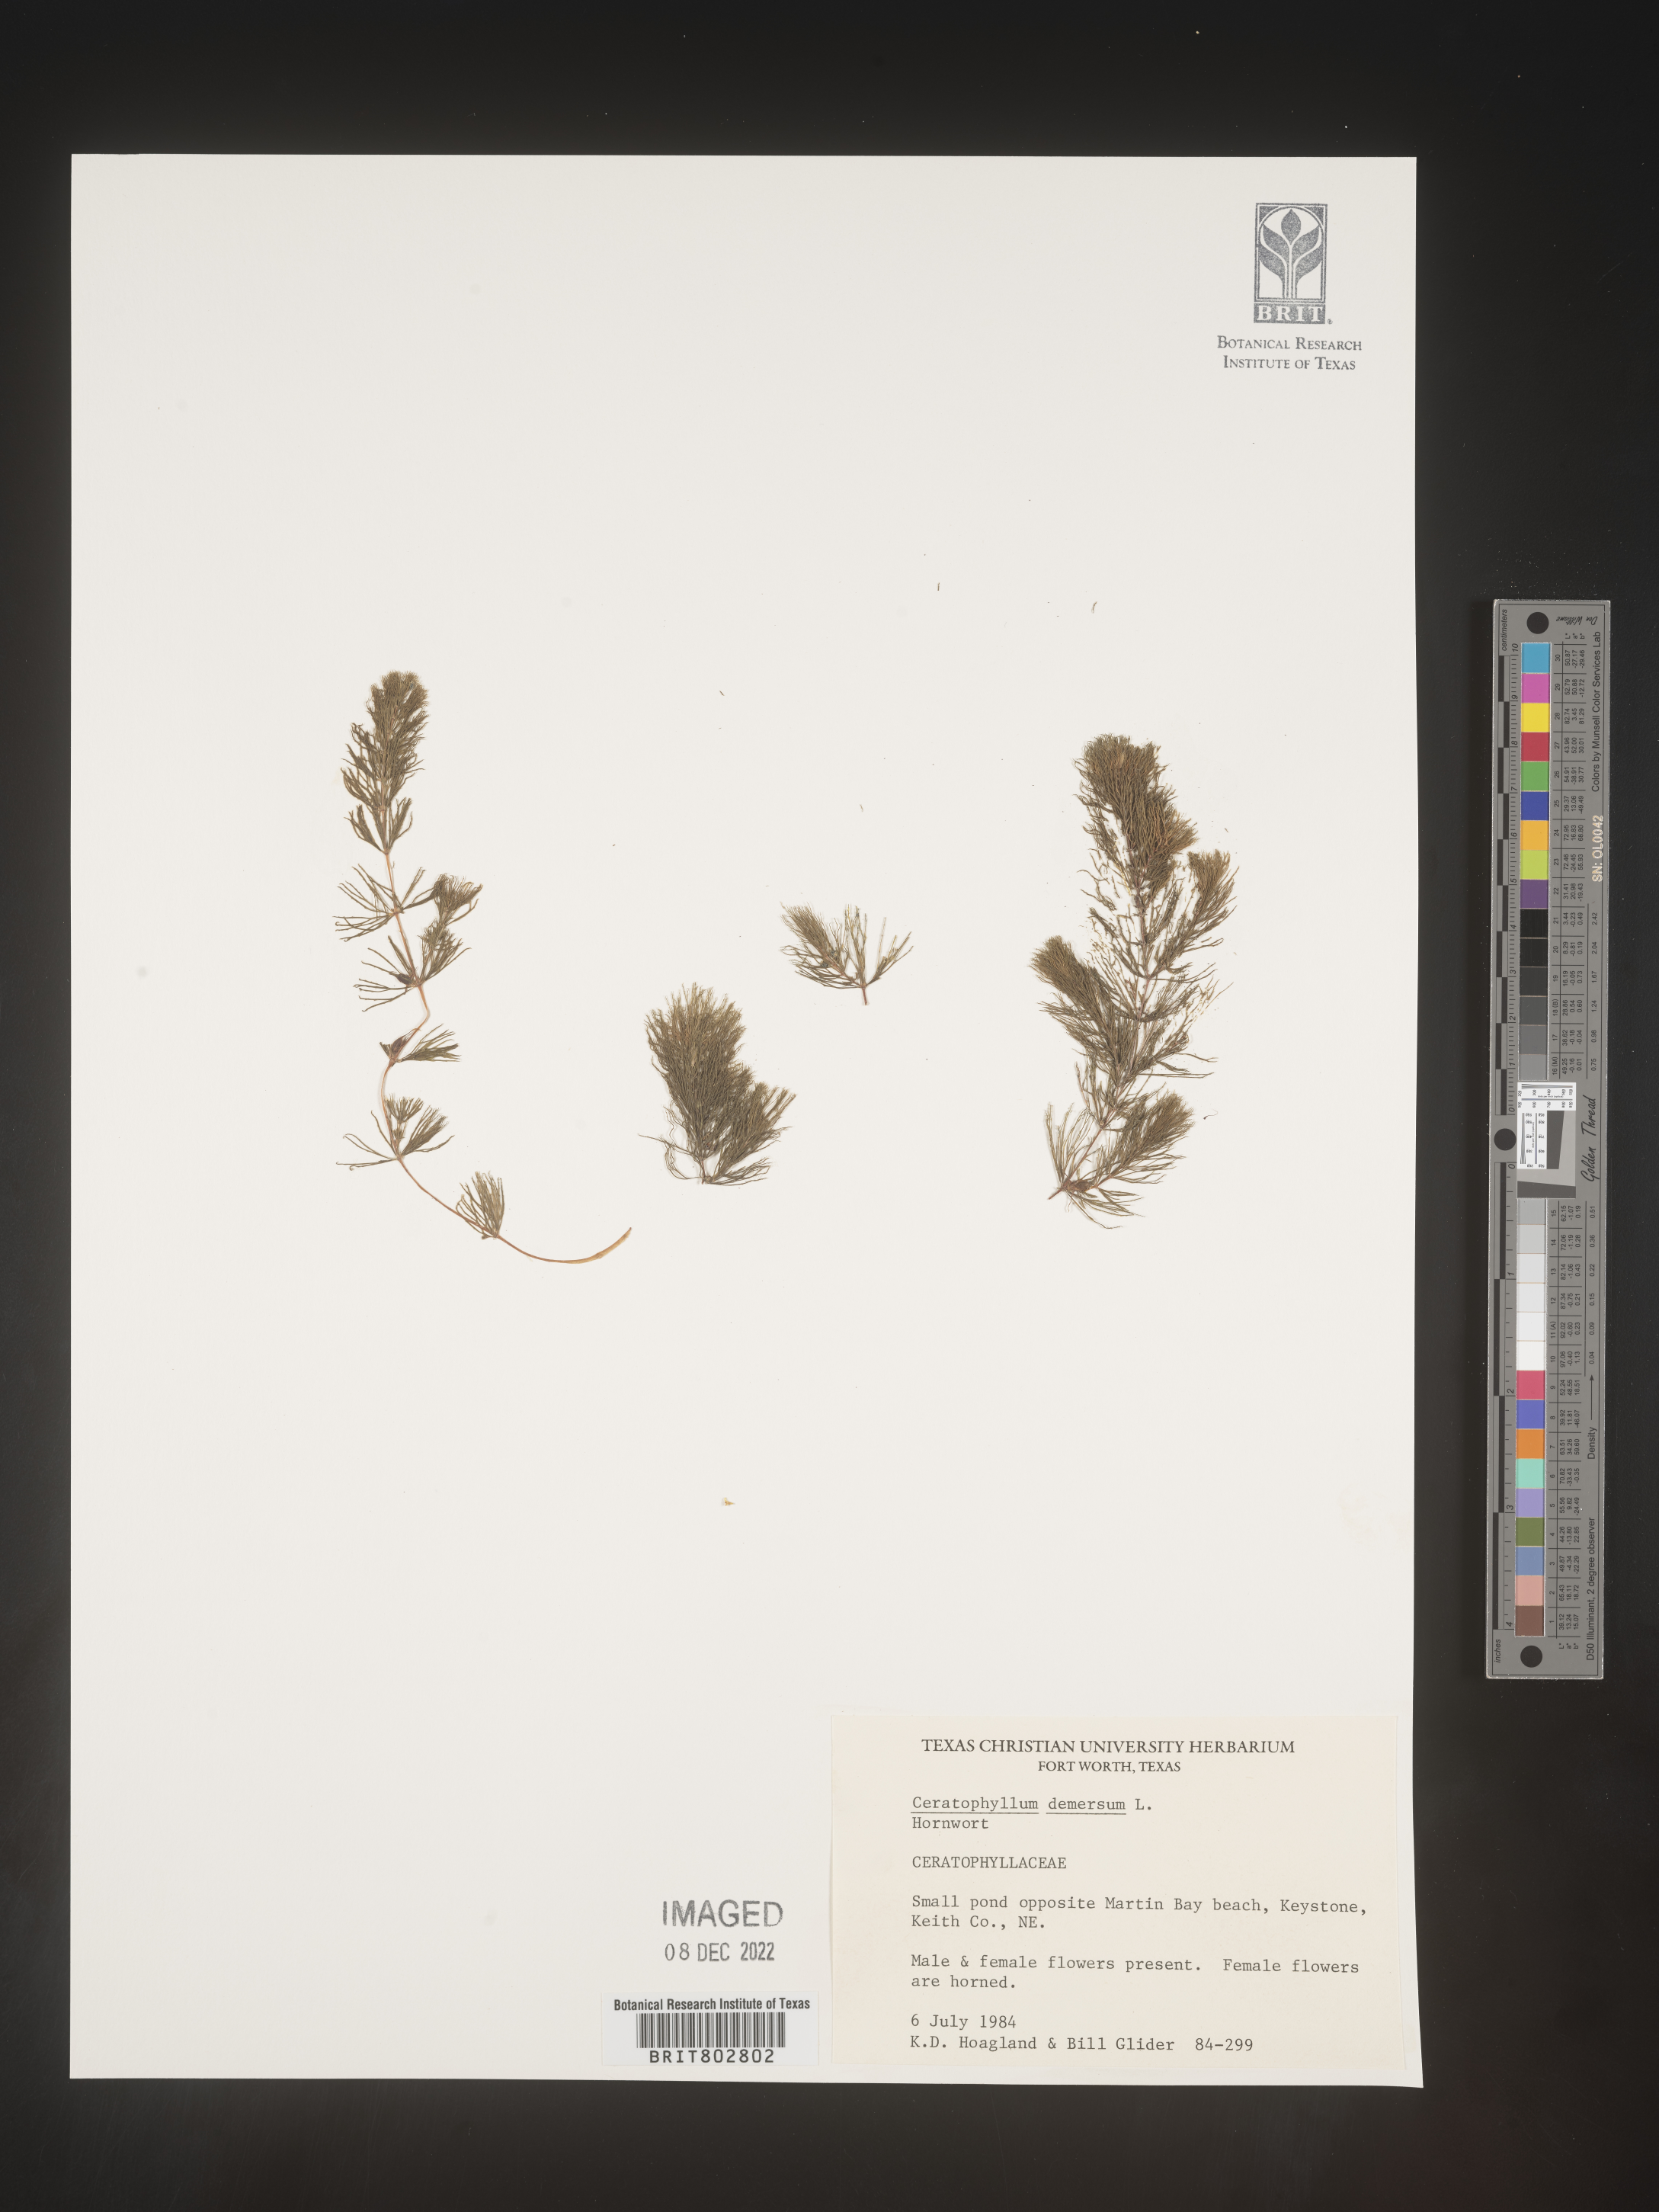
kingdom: Plantae
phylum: Tracheophyta
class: Magnoliopsida
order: Ceratophyllales
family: Ceratophyllaceae
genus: Ceratophyllum
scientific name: Ceratophyllum demersum
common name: Rigid hornwort
